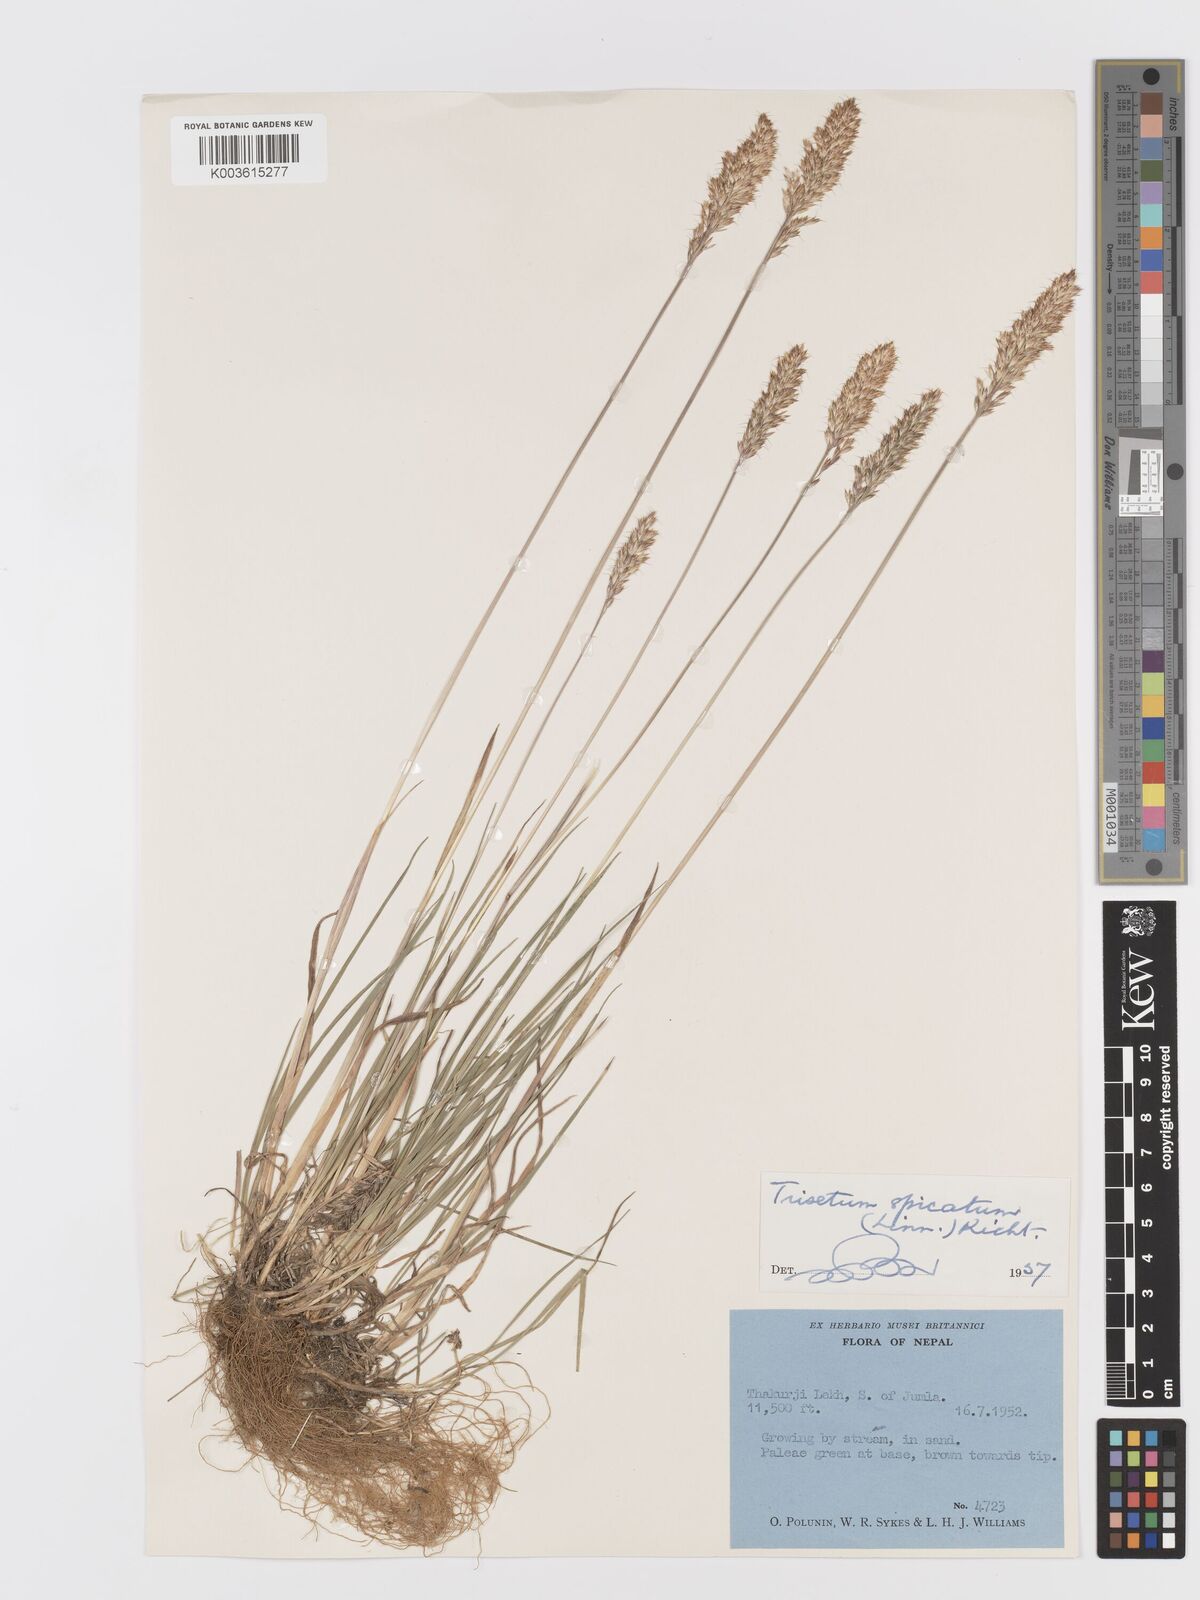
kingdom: Plantae
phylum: Tracheophyta
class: Liliopsida
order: Poales
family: Poaceae
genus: Koeleria
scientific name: Koeleria spicata
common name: Mountain trisetum
